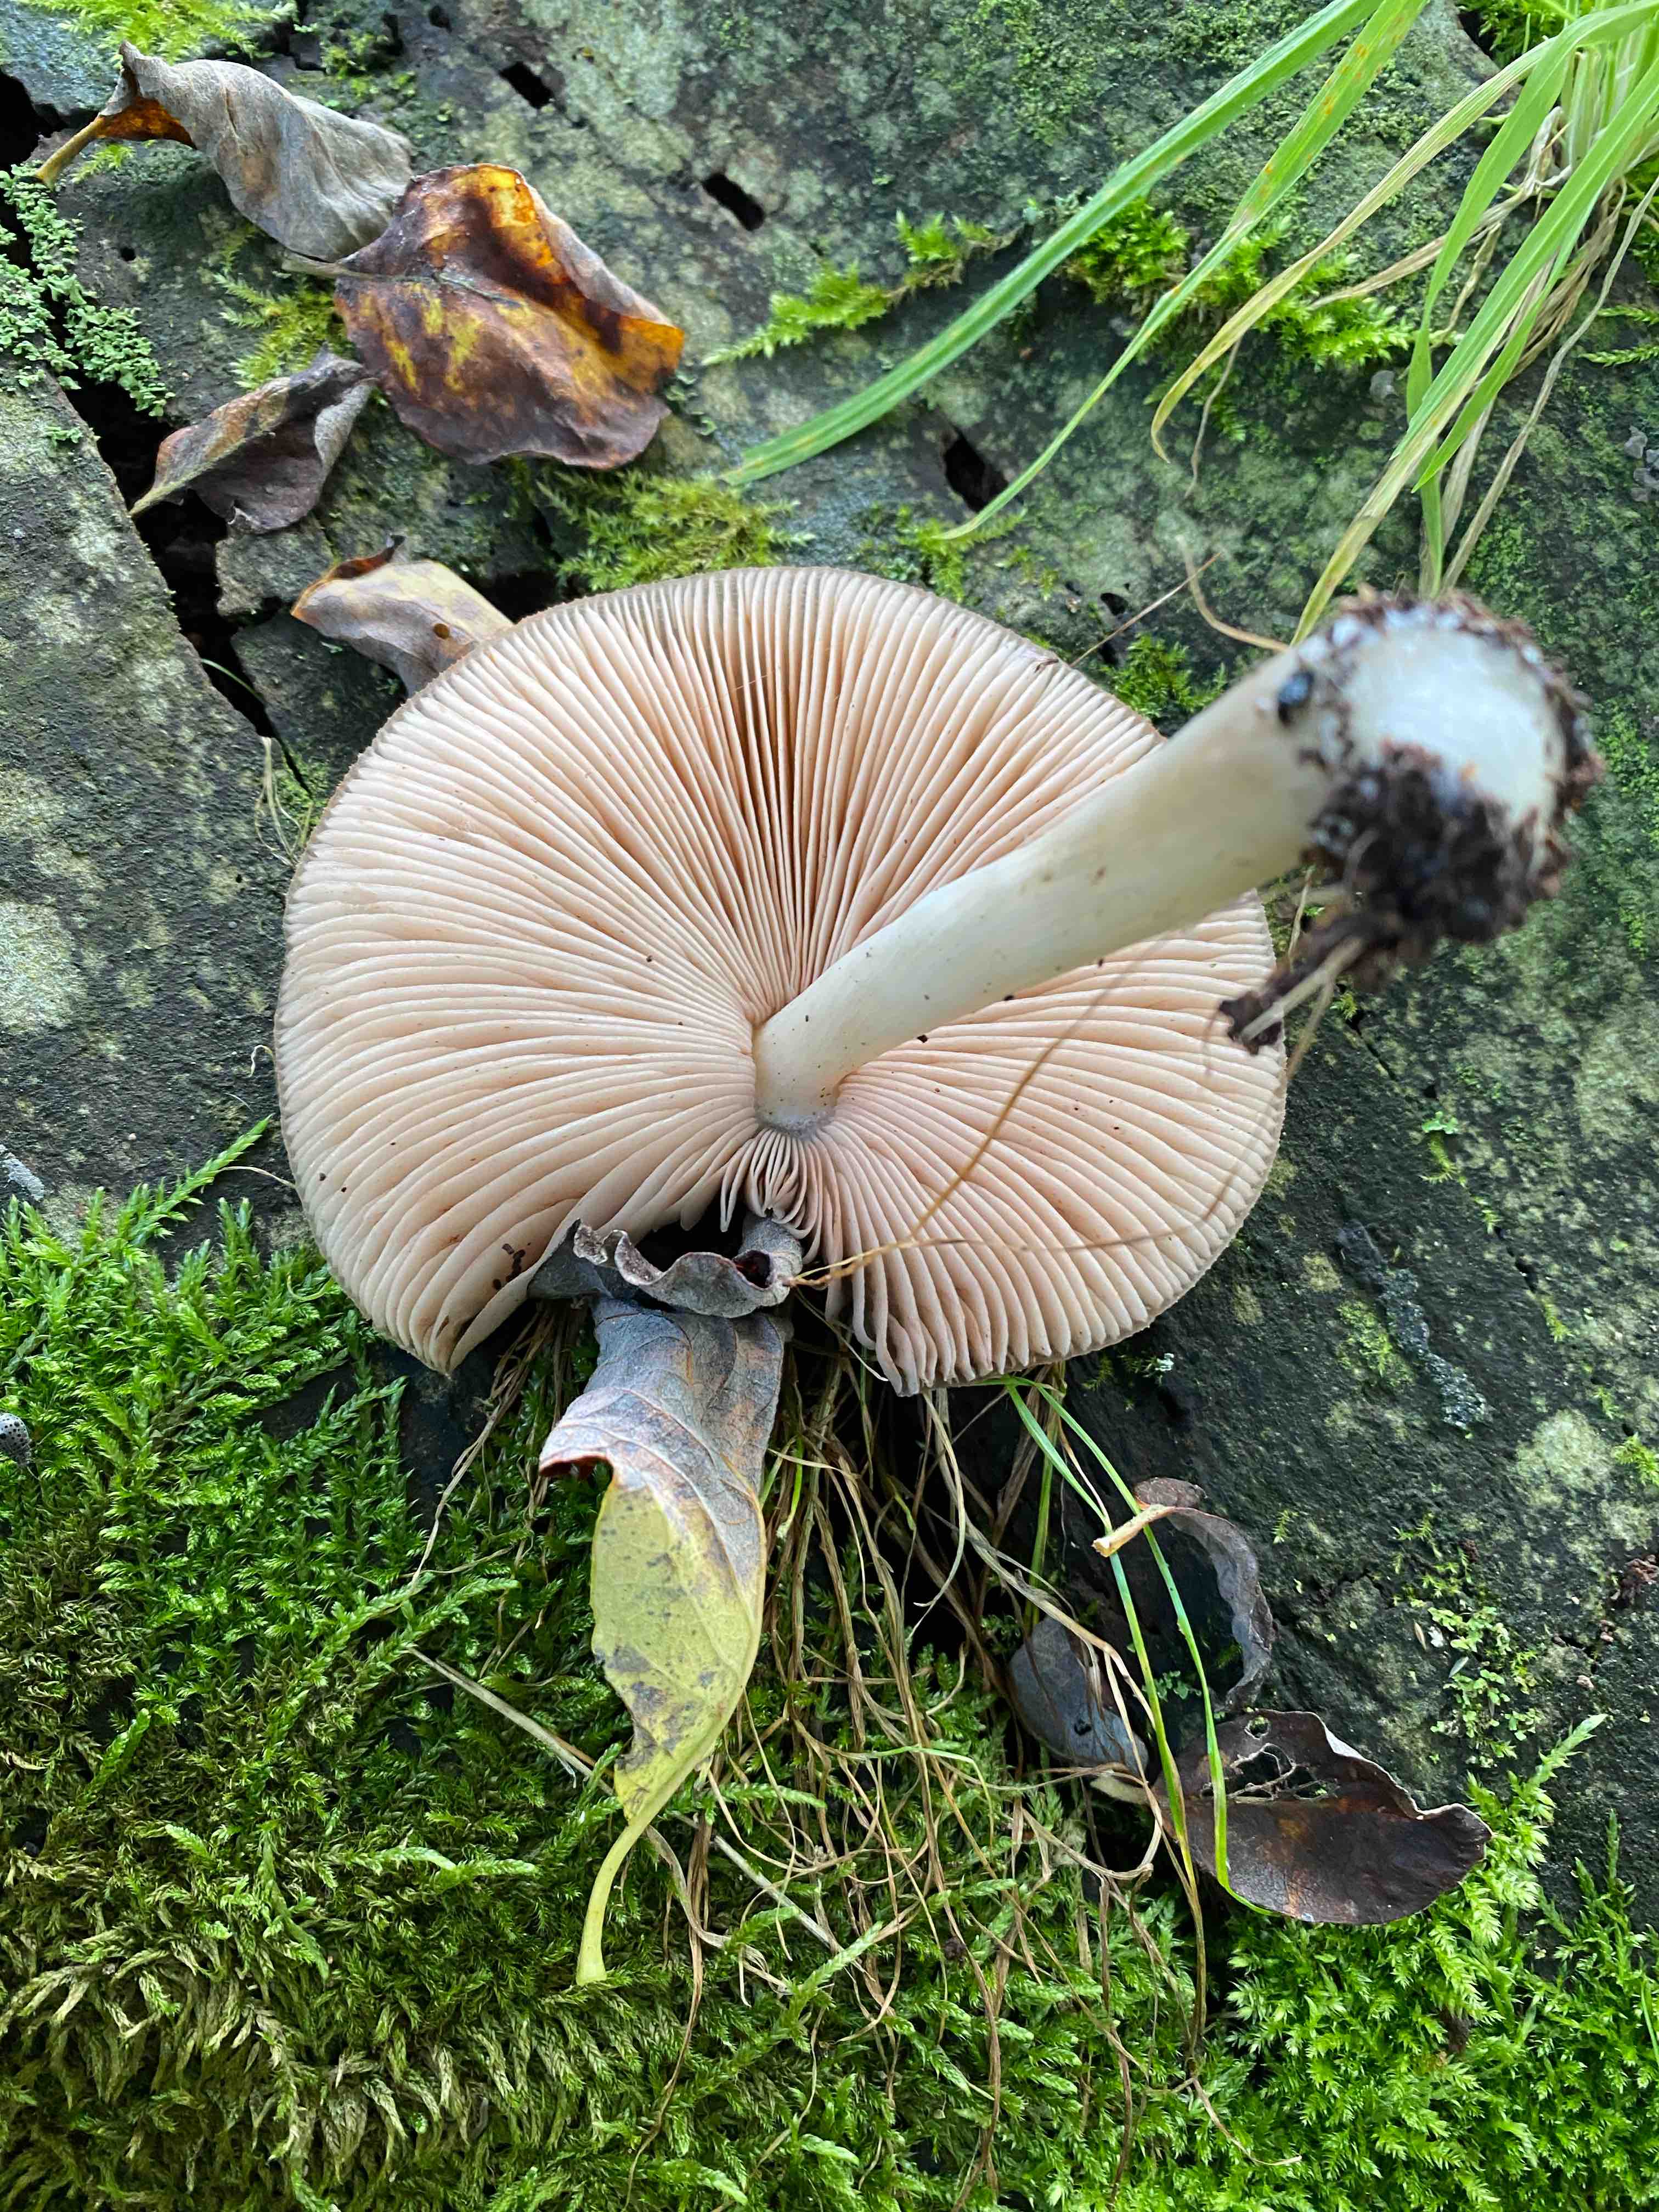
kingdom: Fungi
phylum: Basidiomycota
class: Agaricomycetes
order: Agaricales
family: Pluteaceae
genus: Pluteus
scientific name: Pluteus cervinus
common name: sodfarvet skærmhat
